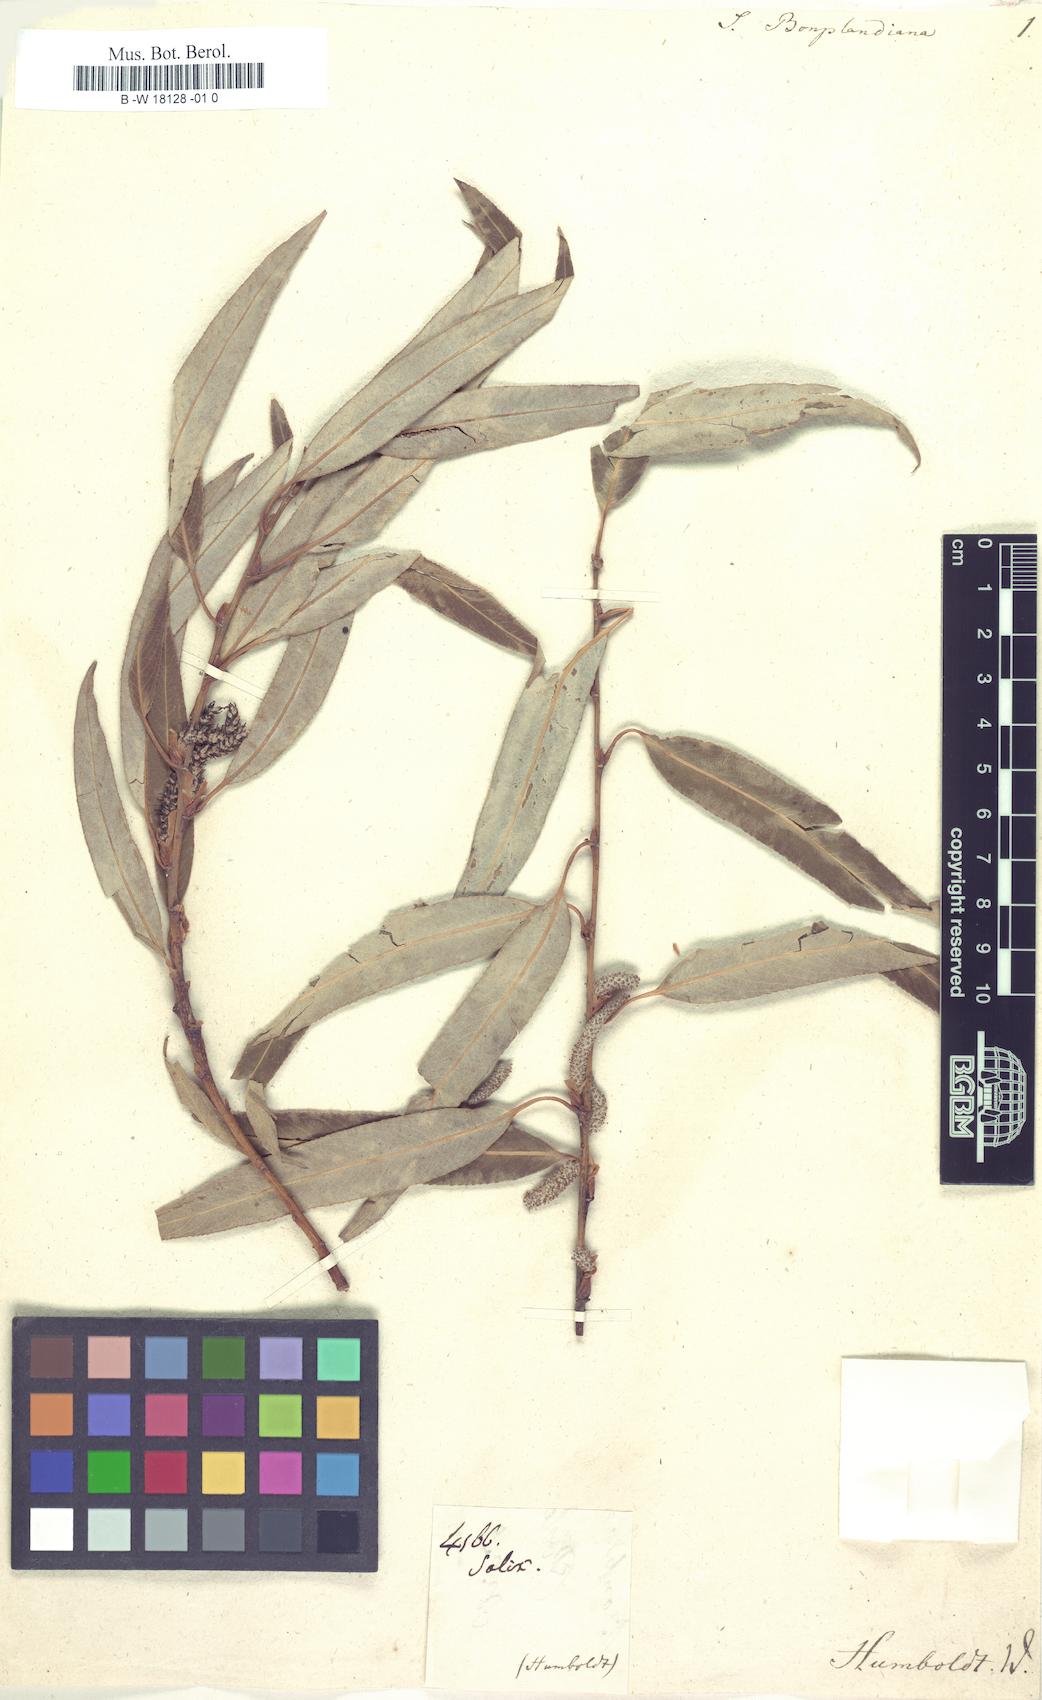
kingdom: Plantae
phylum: Tracheophyta
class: Magnoliopsida
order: Malpighiales
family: Salicaceae
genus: Salix
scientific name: Salix bonplandiana
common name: Bonpland’s willow
